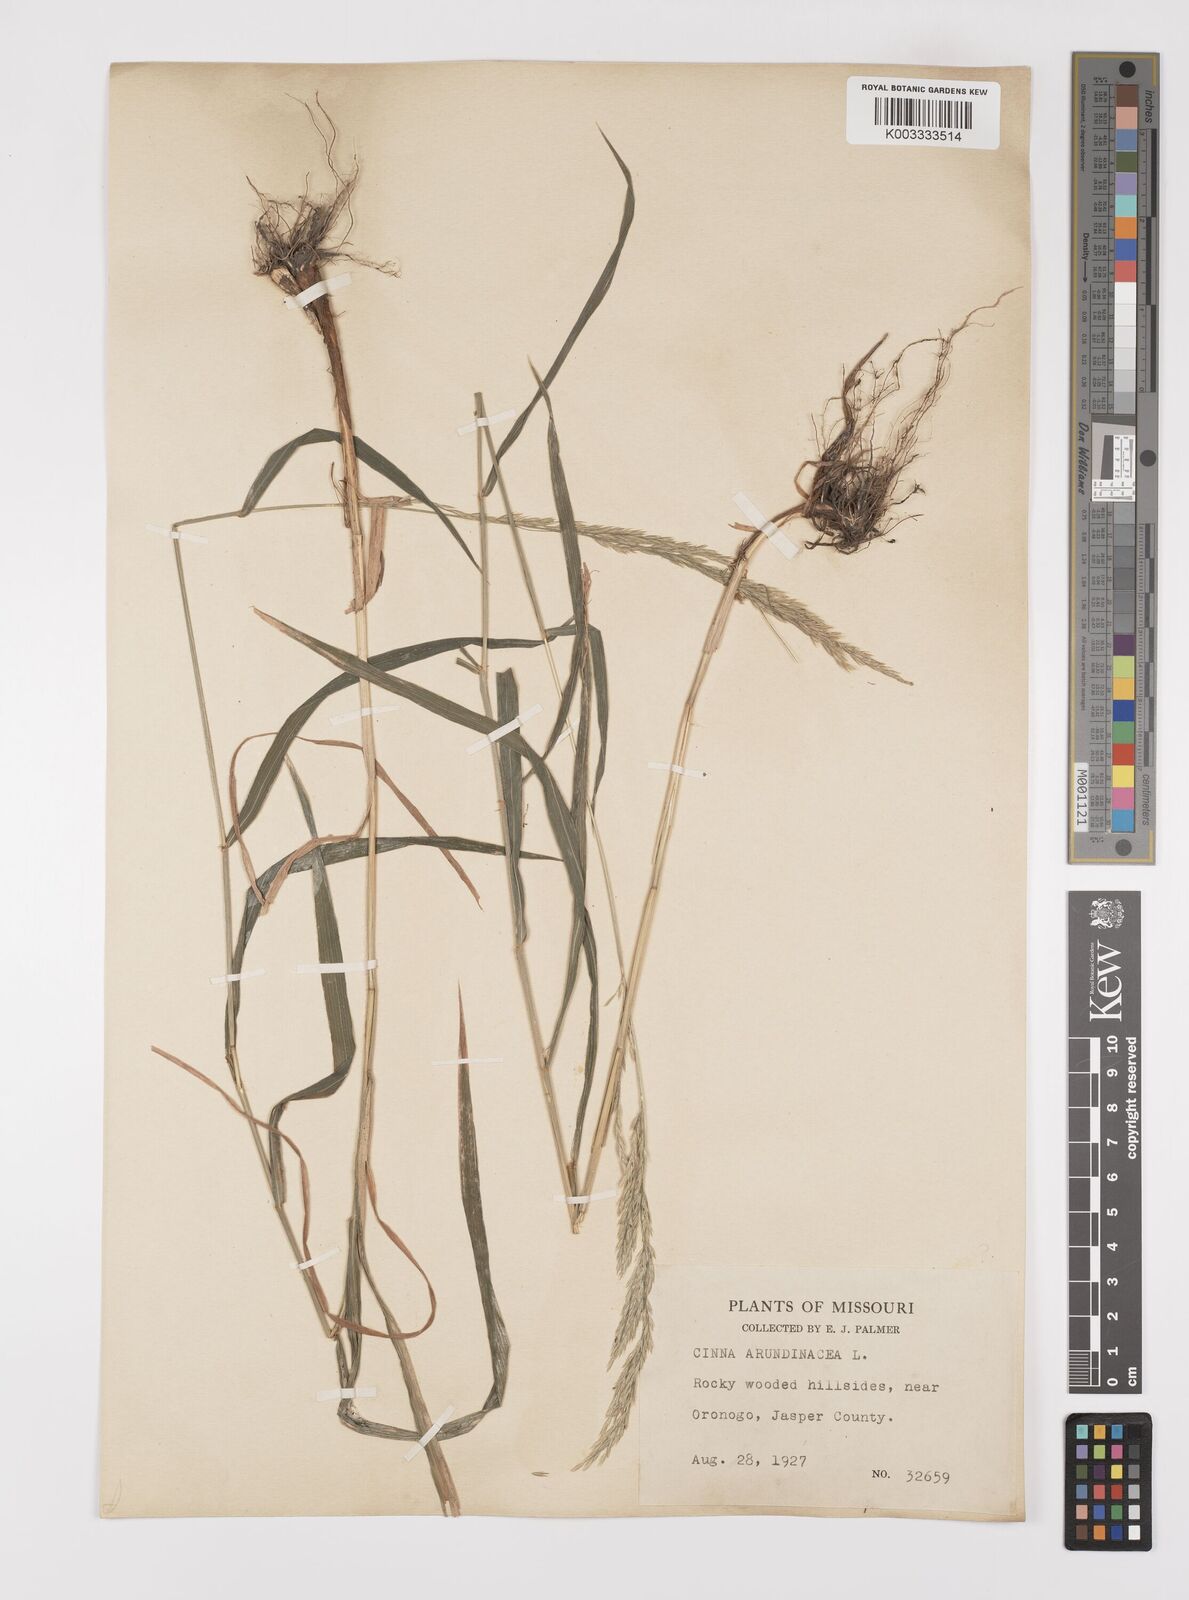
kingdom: Plantae
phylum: Tracheophyta
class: Liliopsida
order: Poales
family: Poaceae
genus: Cinna
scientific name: Cinna
